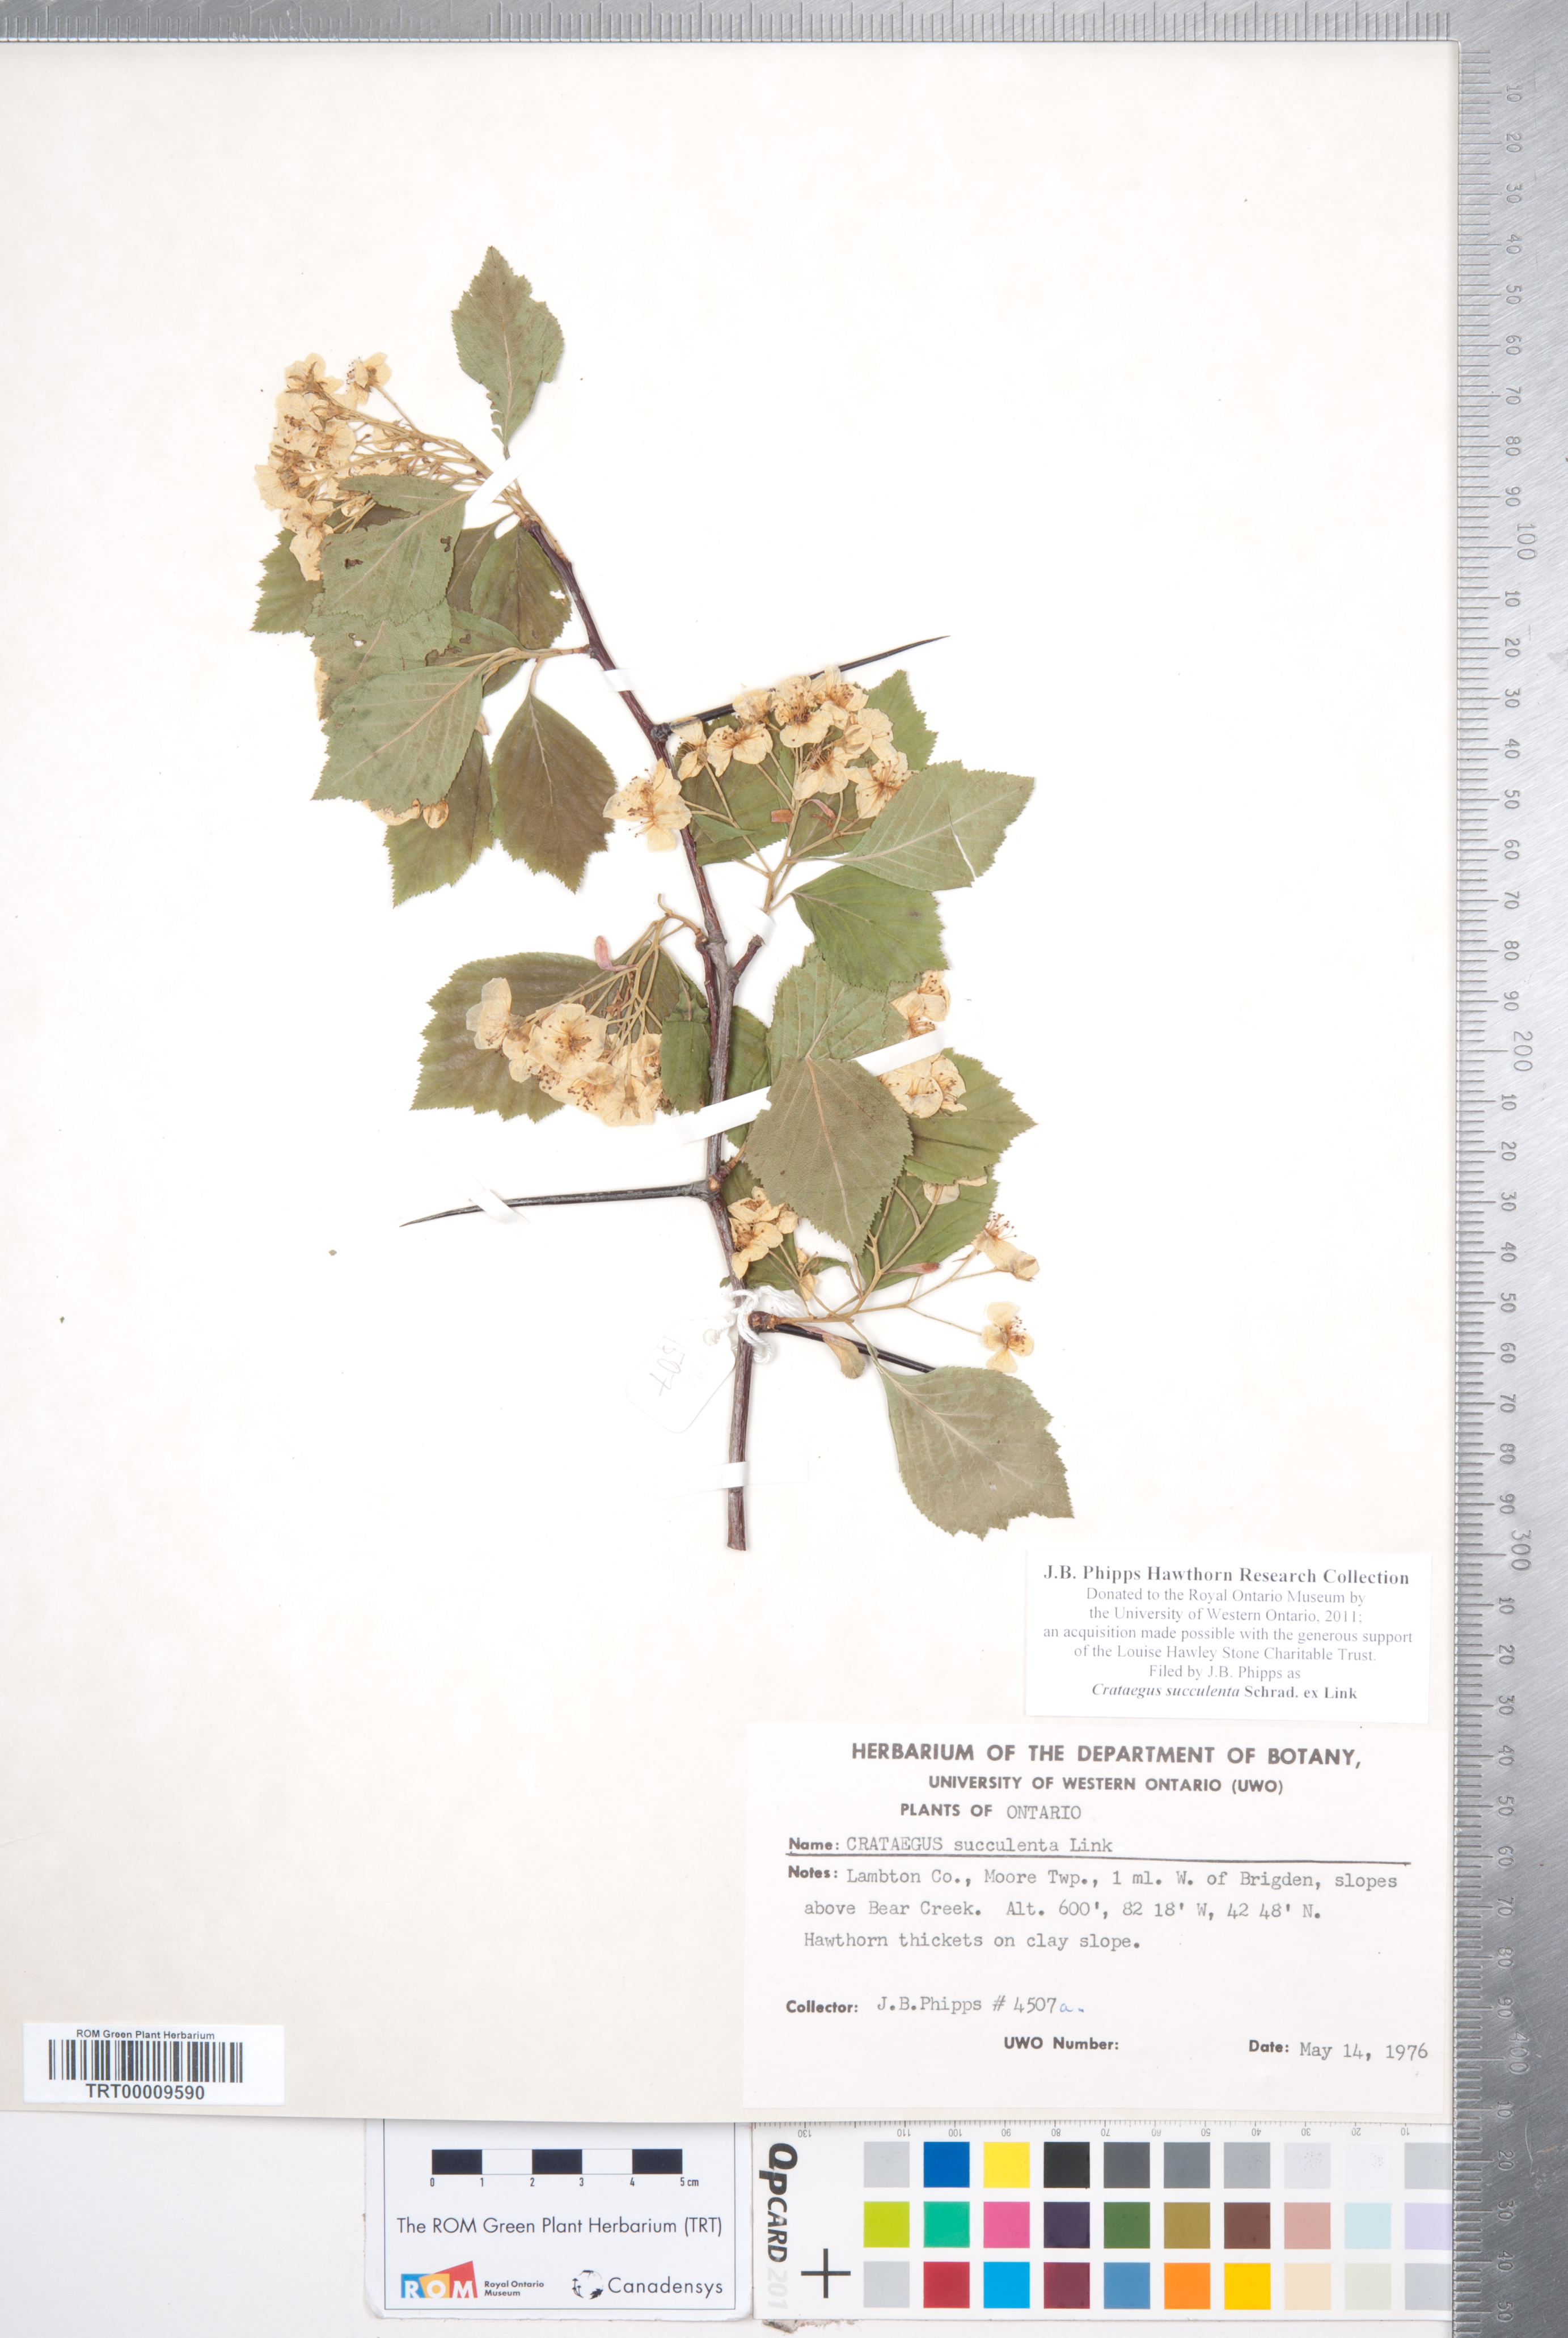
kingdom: Plantae
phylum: Tracheophyta
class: Magnoliopsida
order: Rosales
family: Rosaceae
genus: Crataegus
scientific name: Crataegus succulenta
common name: Fleshy hawthorn
